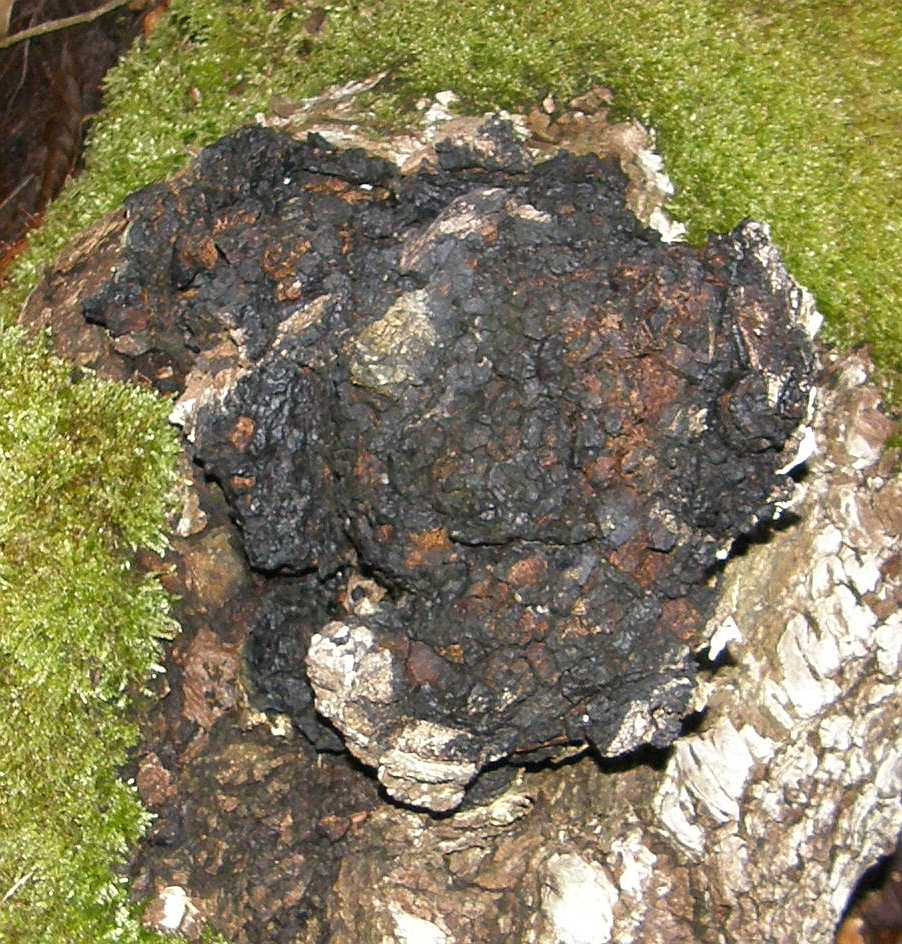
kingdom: Fungi
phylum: Basidiomycota
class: Agaricomycetes
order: Hymenochaetales
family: Hymenochaetaceae
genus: Inonotus
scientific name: Inonotus obliquus
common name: birke-spejlporesvamp
